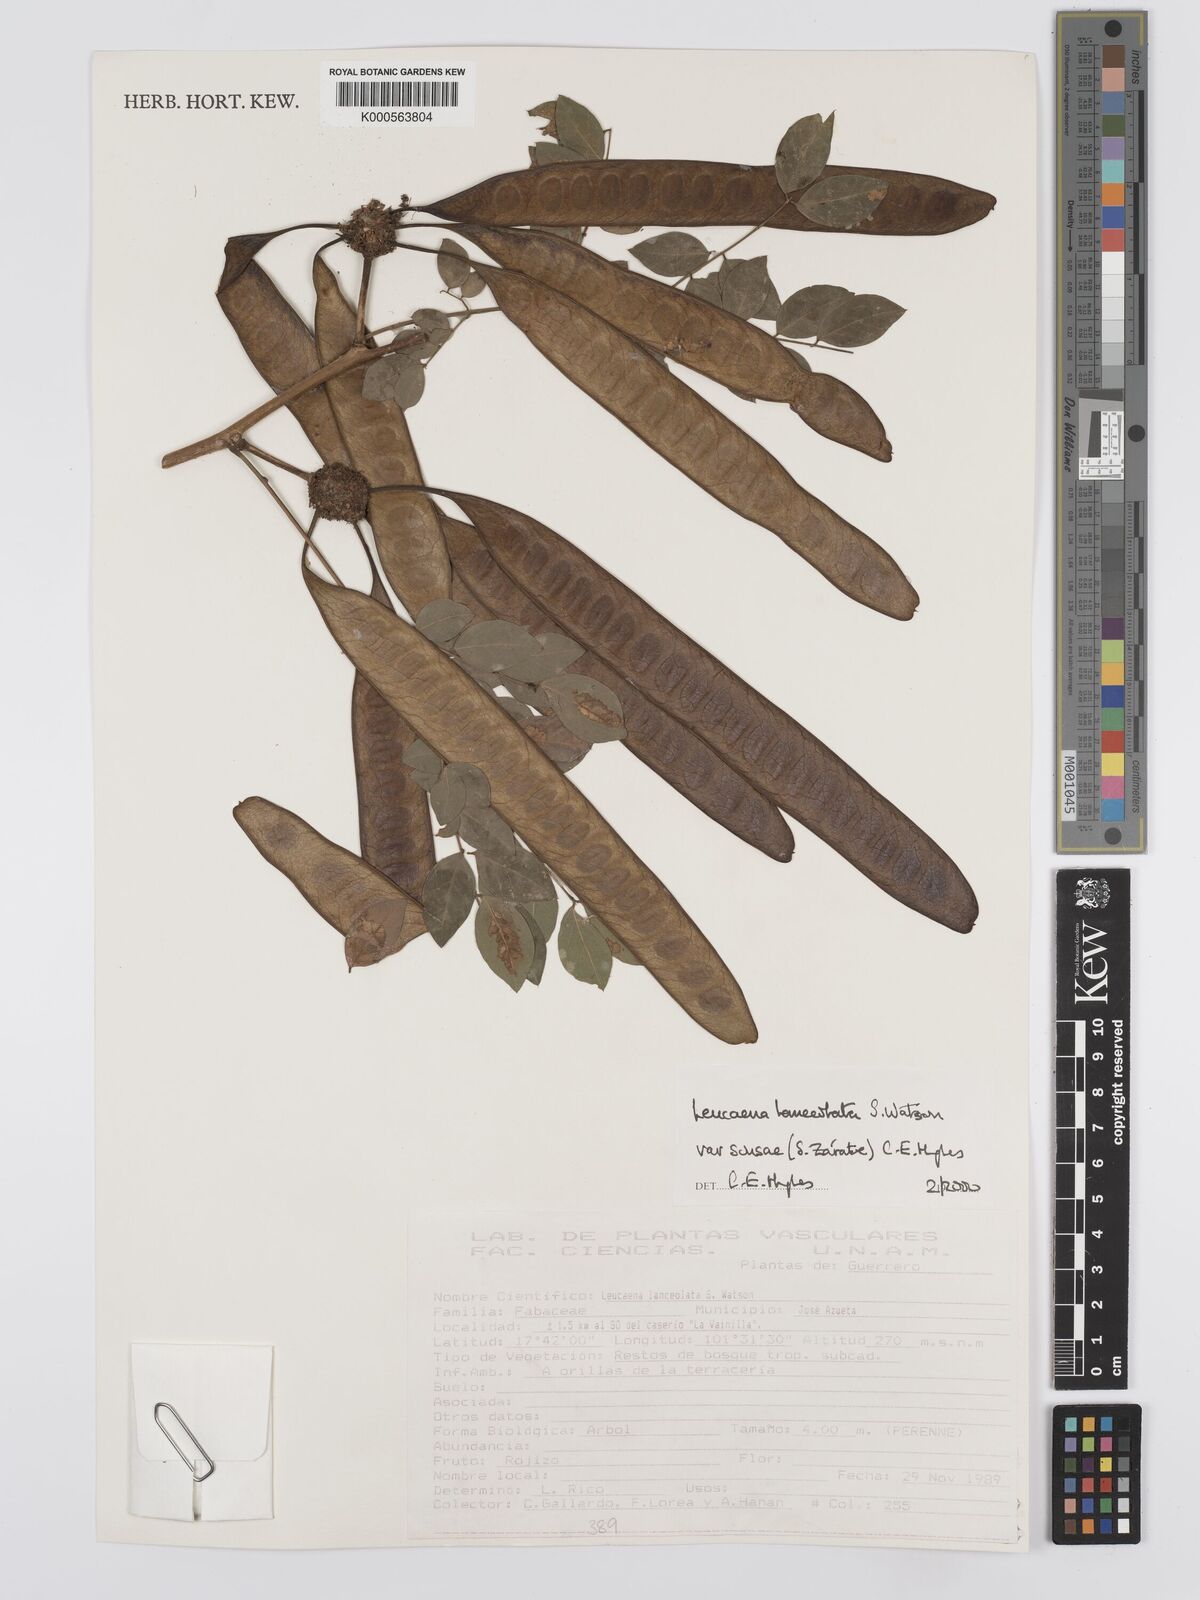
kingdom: Plantae
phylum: Tracheophyta
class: Magnoliopsida
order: Fabales
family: Fabaceae
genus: Leucaena
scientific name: Leucaena lanceolata
